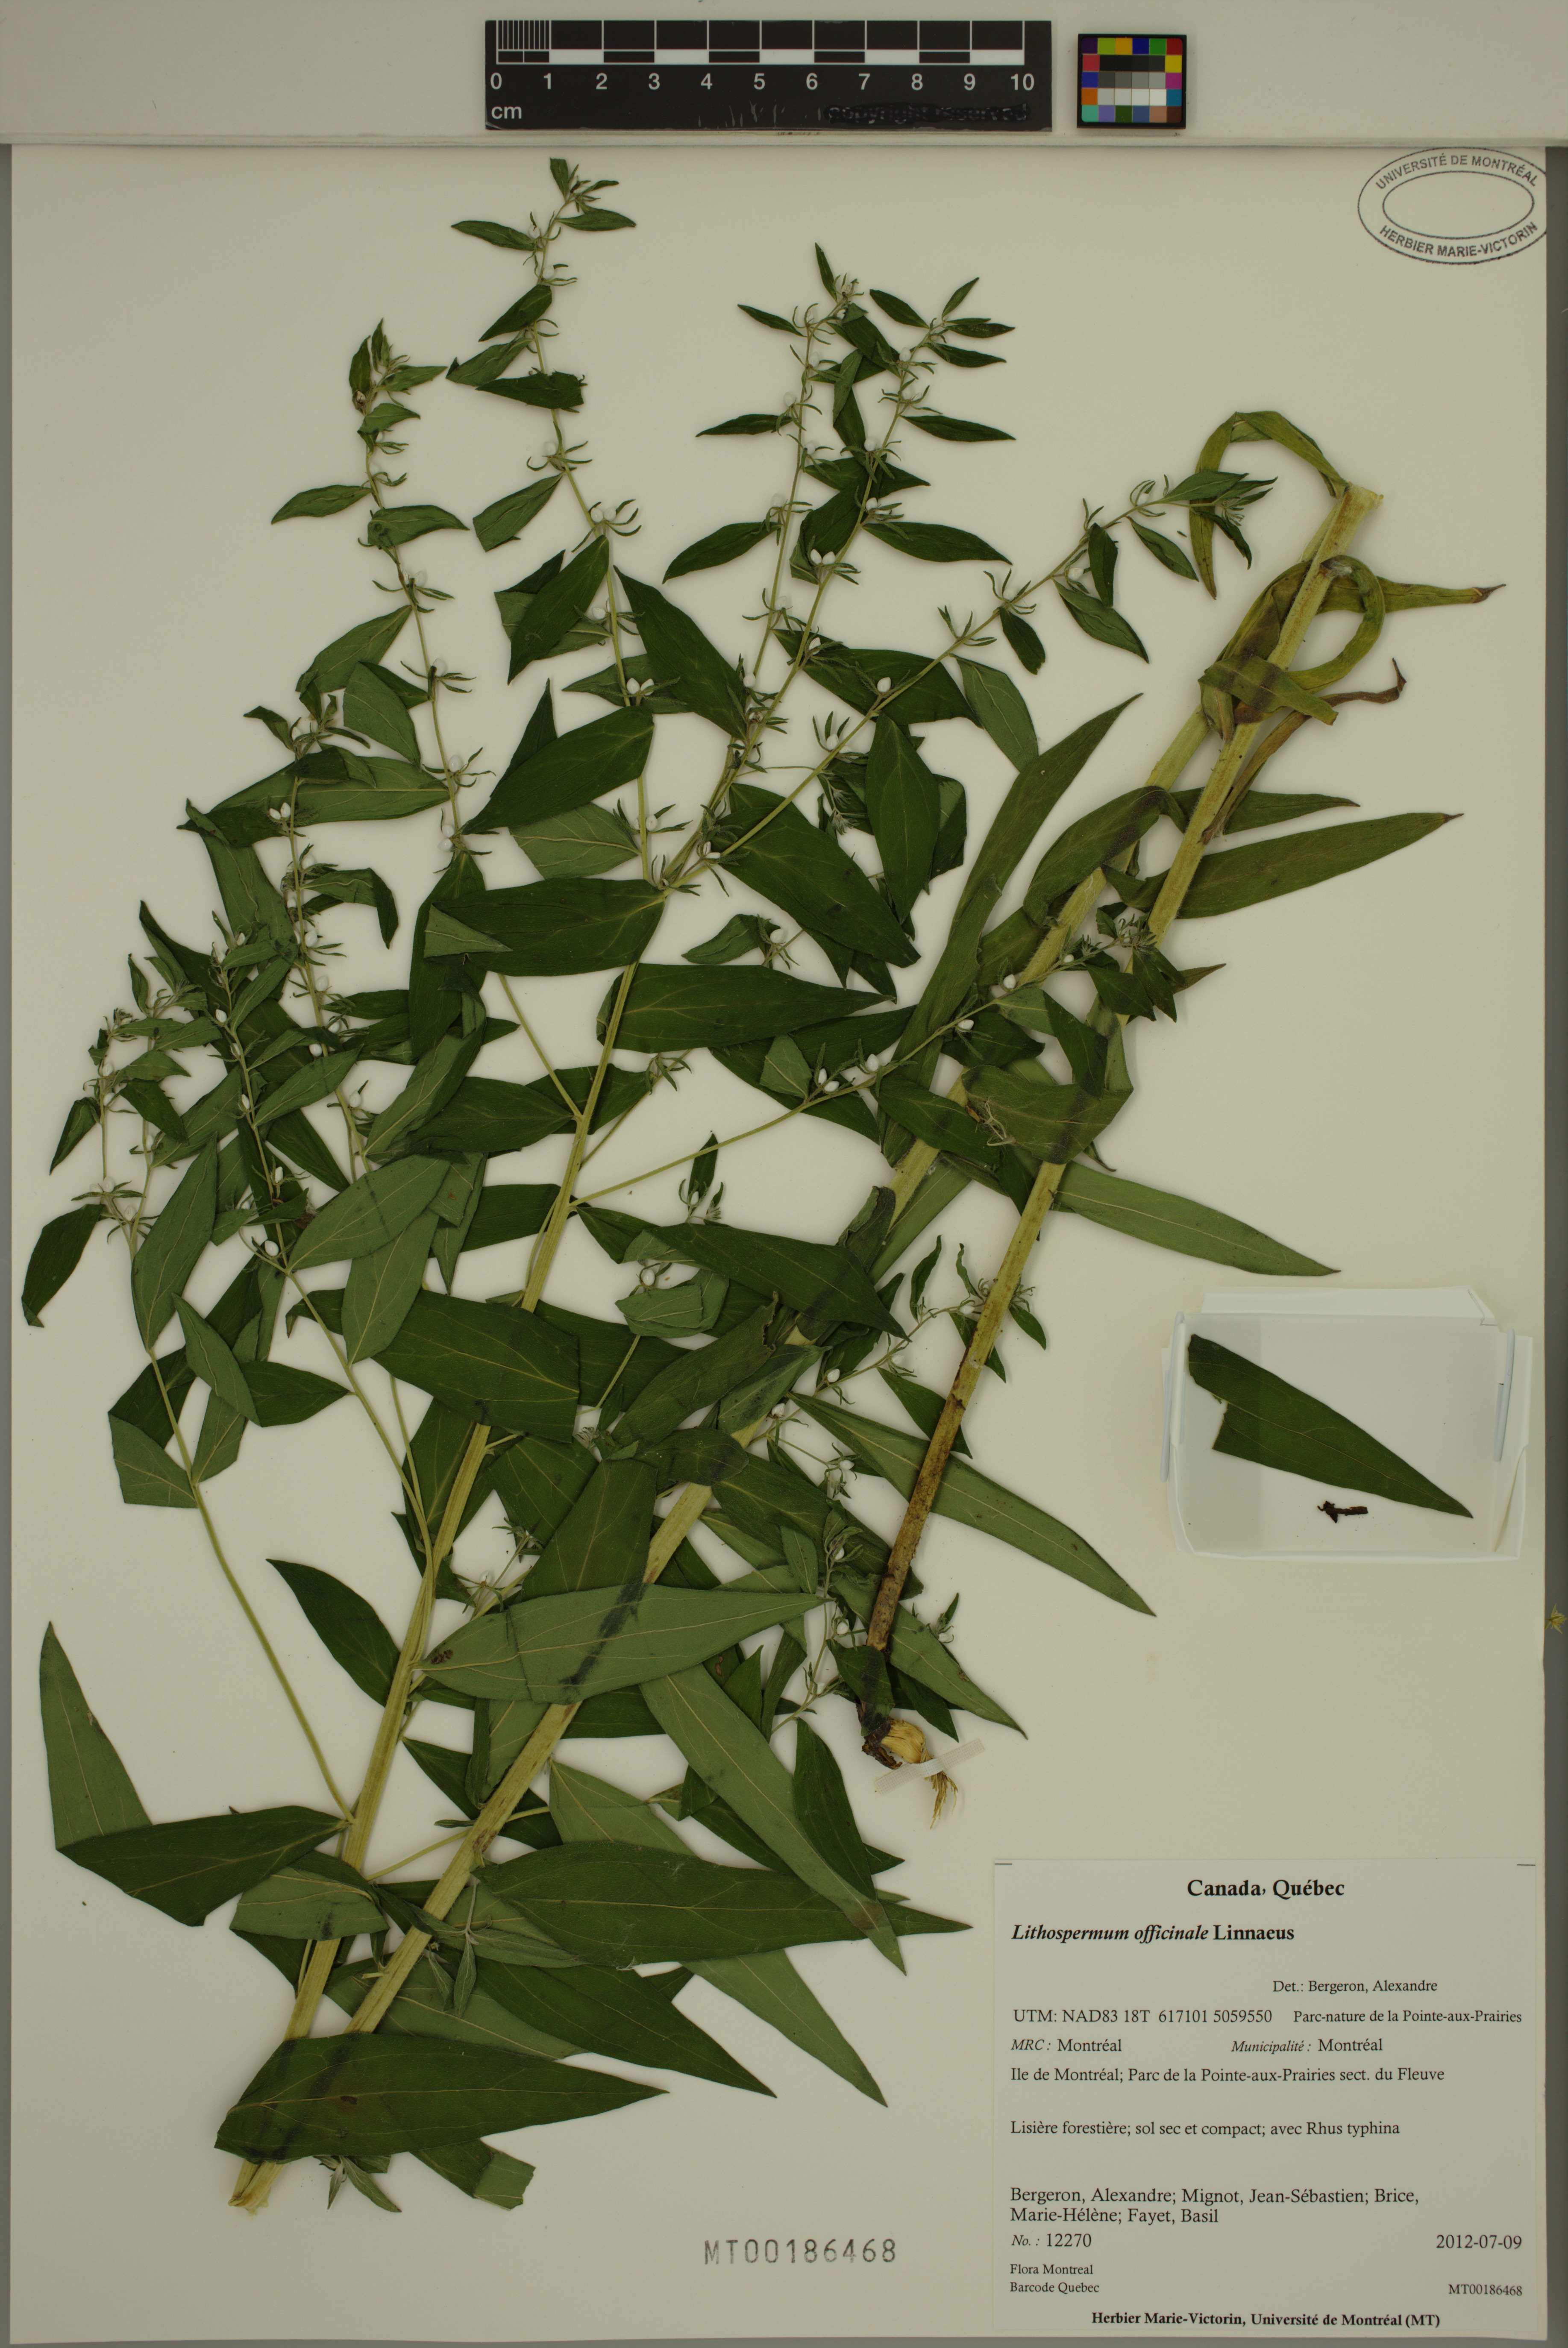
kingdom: Plantae
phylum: Tracheophyta
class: Magnoliopsida
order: Boraginales
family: Boraginaceae
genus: Lithospermum
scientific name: Lithospermum officinale
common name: Common gromwell
